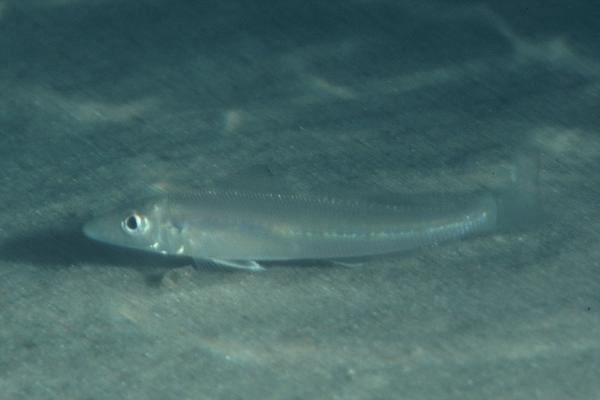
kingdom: Animalia
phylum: Chordata
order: Perciformes
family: Sillaginidae
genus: Sillago
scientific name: Sillago
